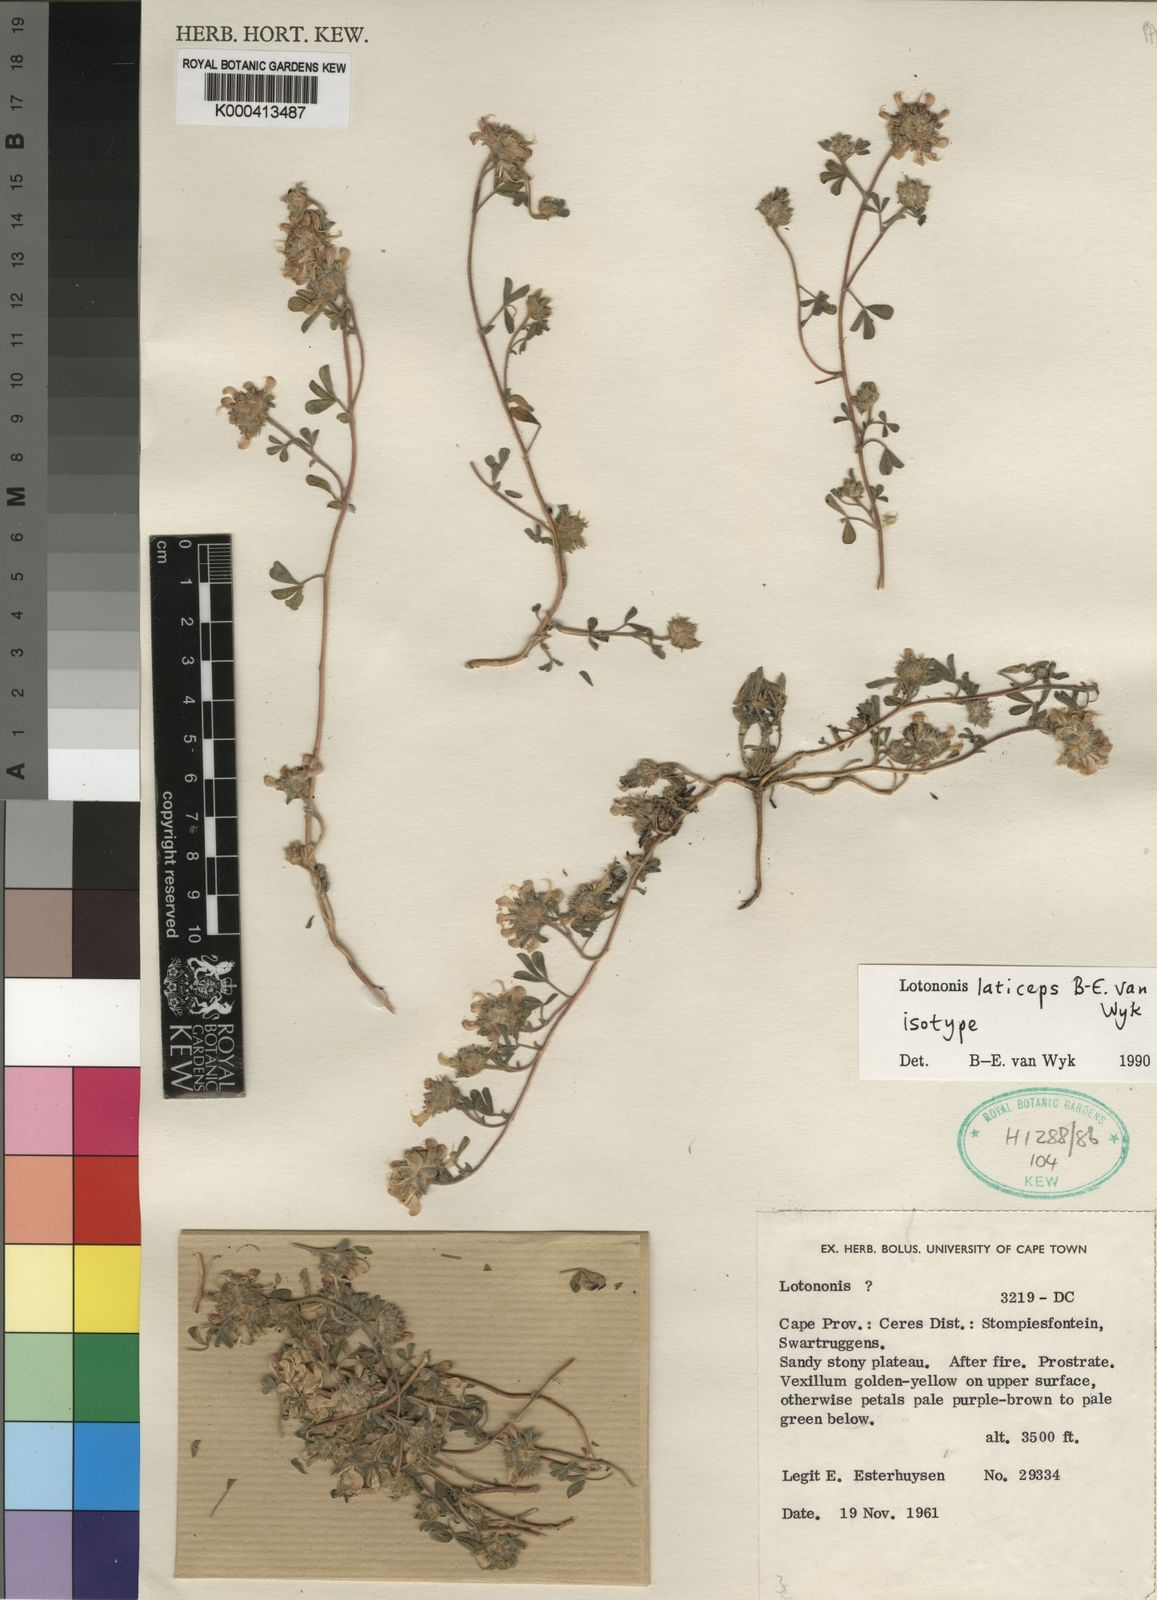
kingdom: Plantae
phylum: Tracheophyta
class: Magnoliopsida
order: Fabales
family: Fabaceae
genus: Leobordea
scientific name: Leobordea laticeps
